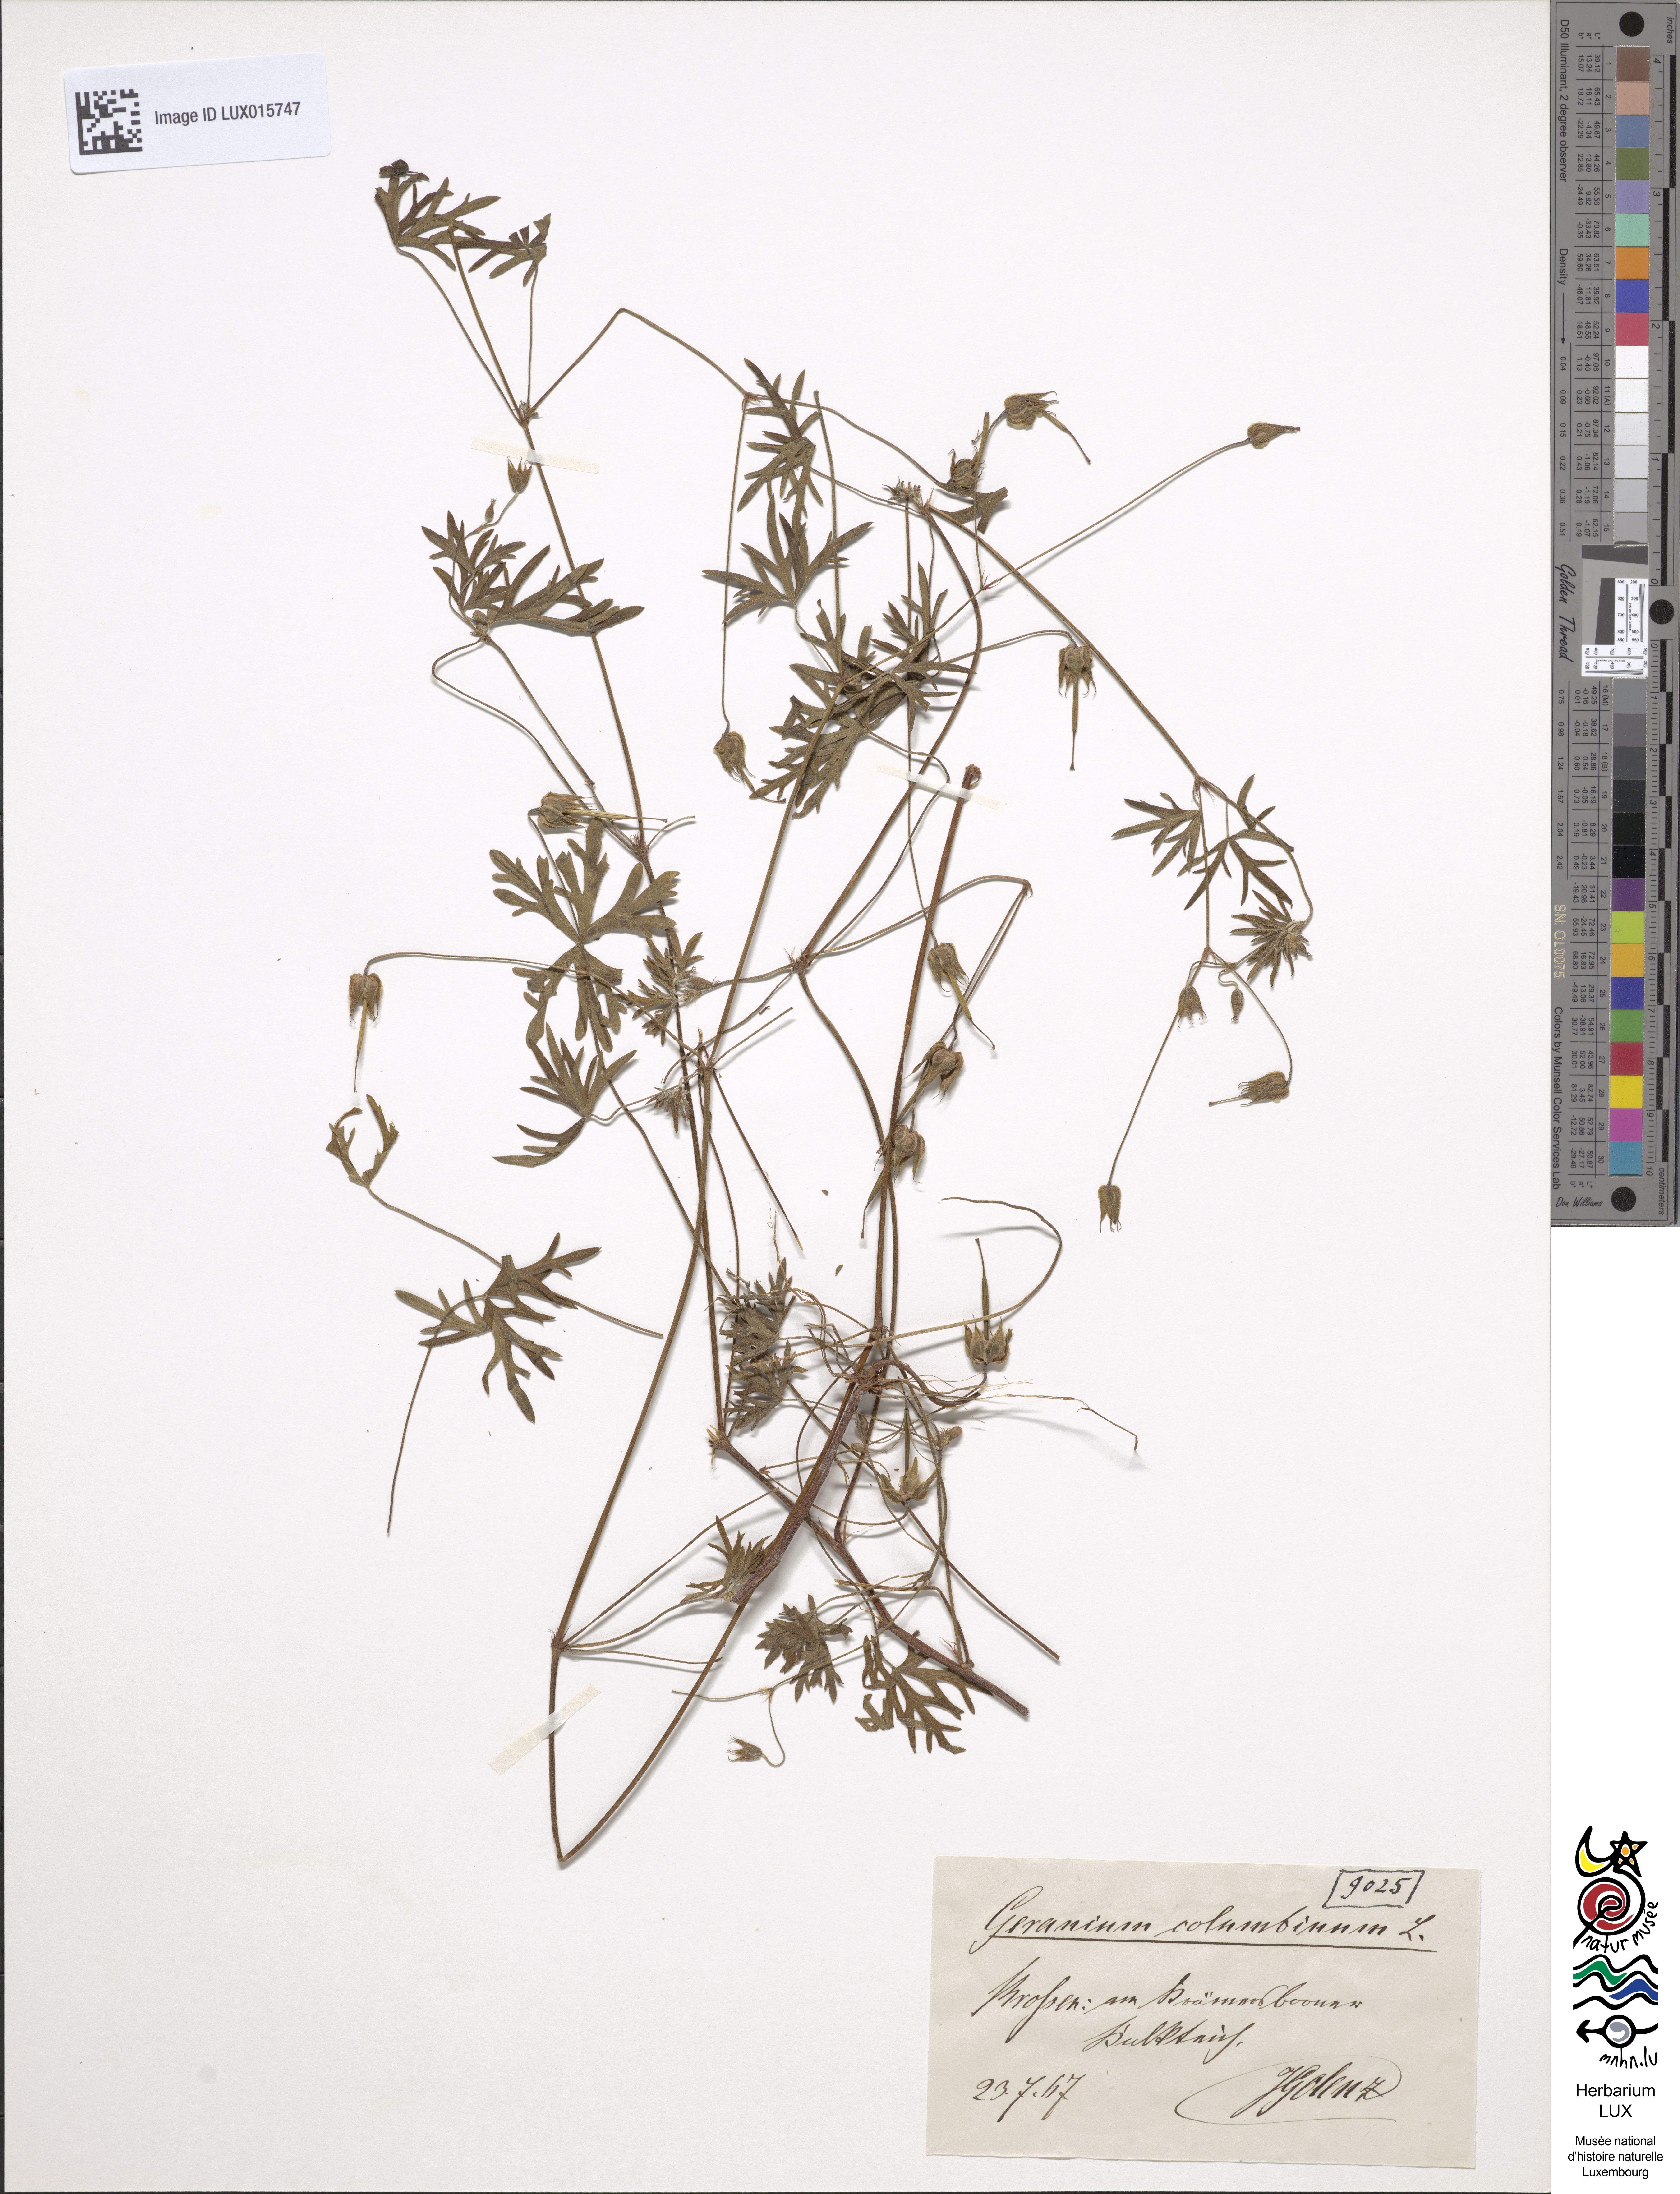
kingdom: Plantae
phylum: Tracheophyta
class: Magnoliopsida
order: Geraniales
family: Geraniaceae
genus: Geranium
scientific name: Geranium columbinum
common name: Long-stalked crane's-bill
